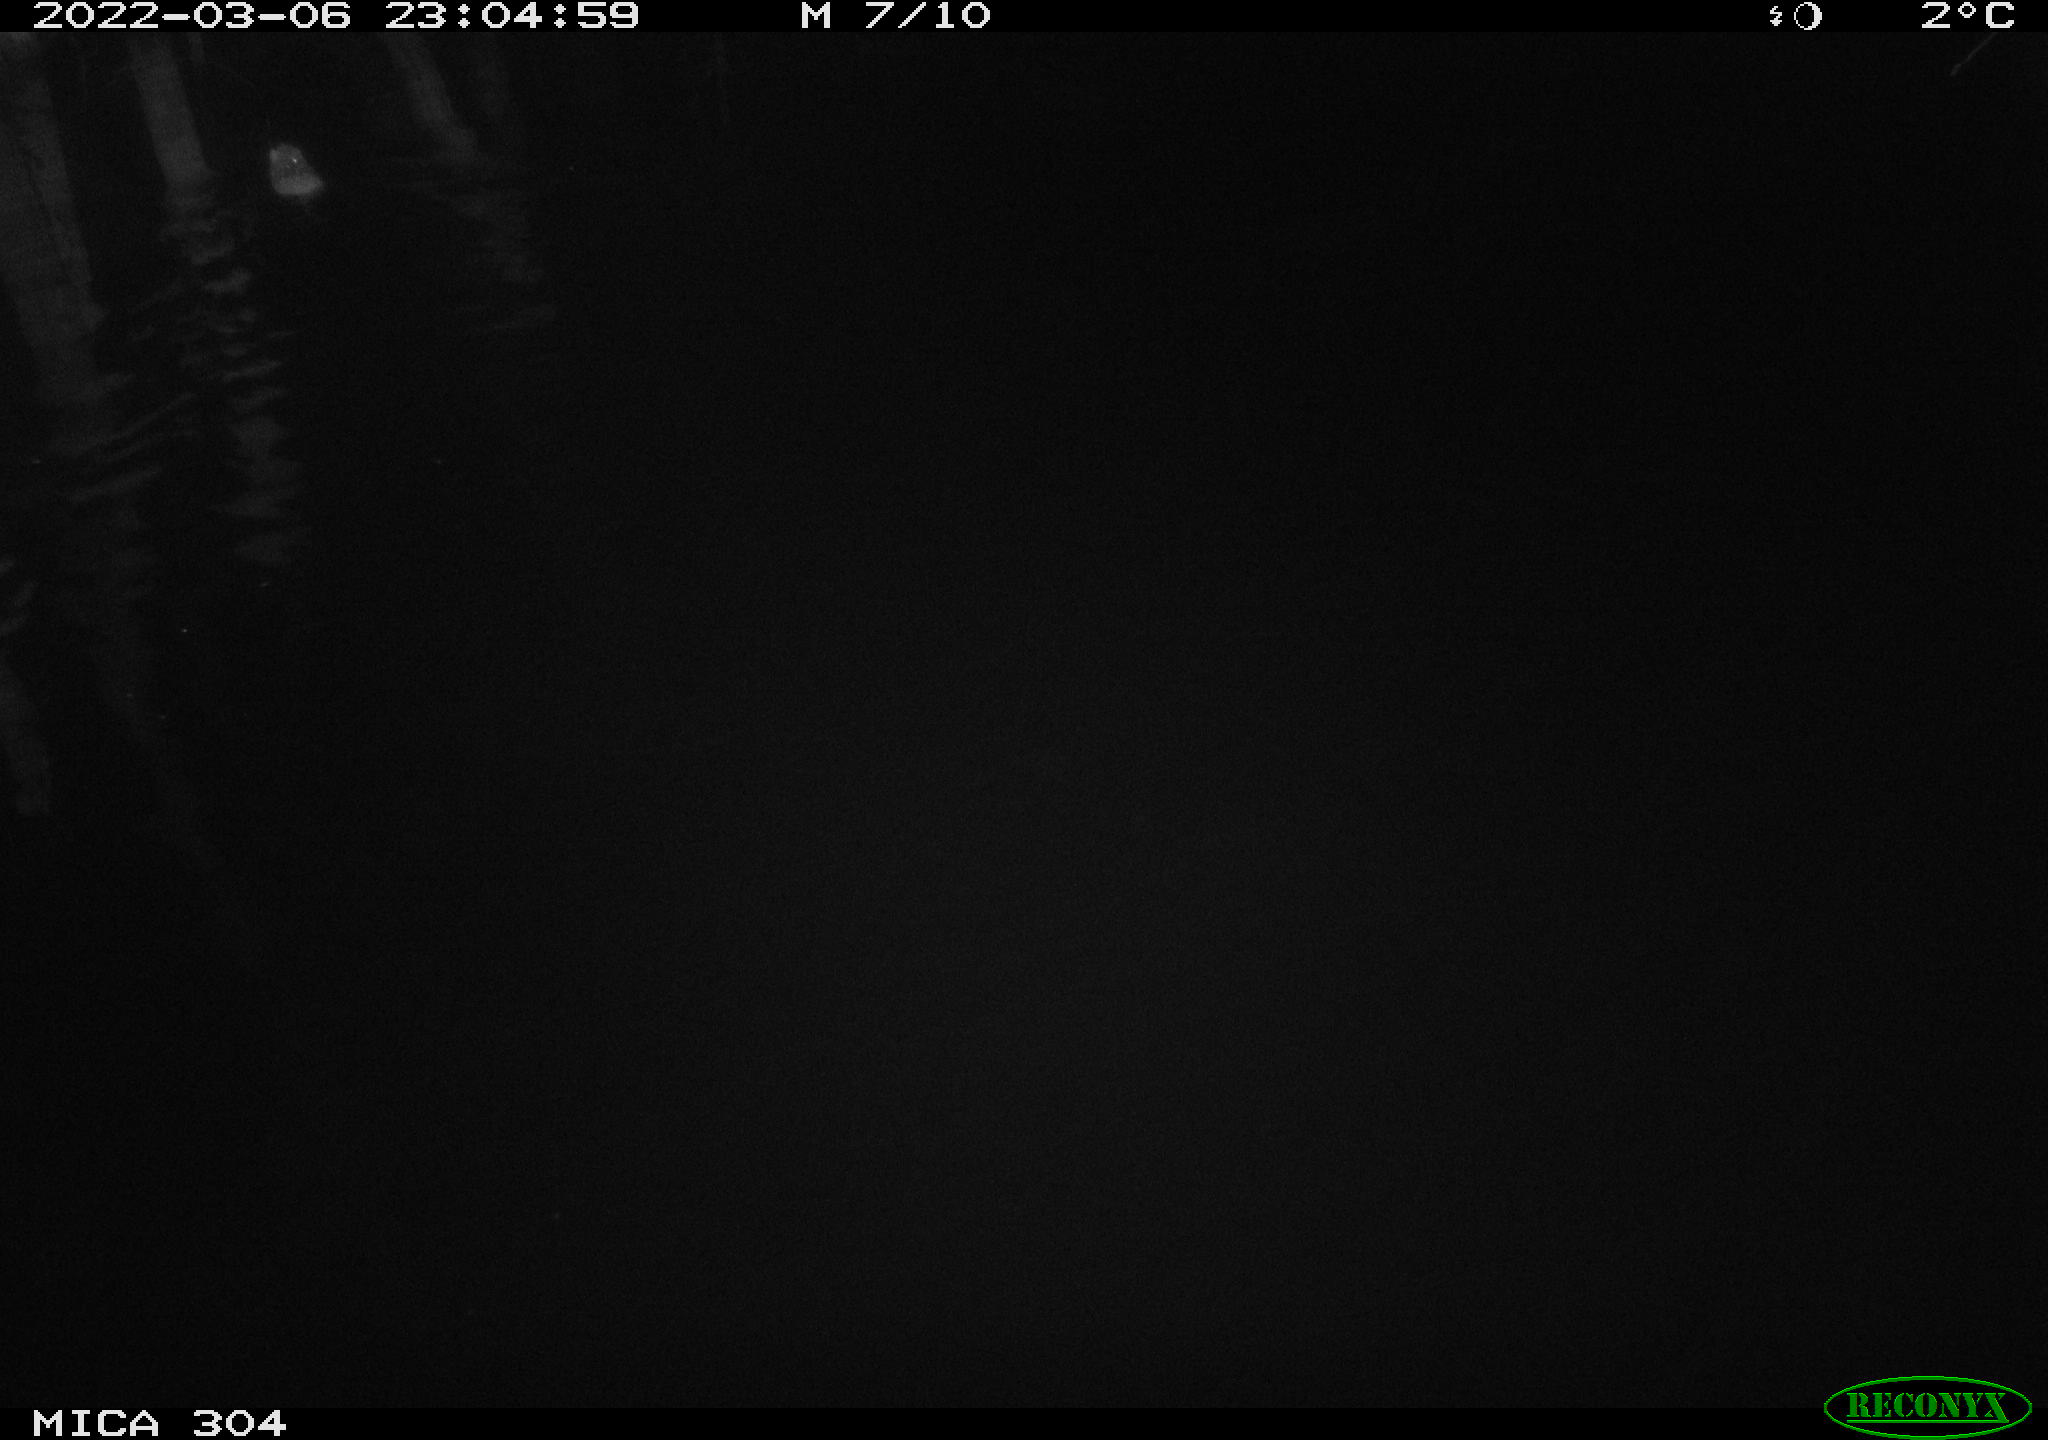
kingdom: Animalia
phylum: Chordata
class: Mammalia
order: Rodentia
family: Muridae
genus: Rattus
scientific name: Rattus norvegicus
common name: Brown rat
